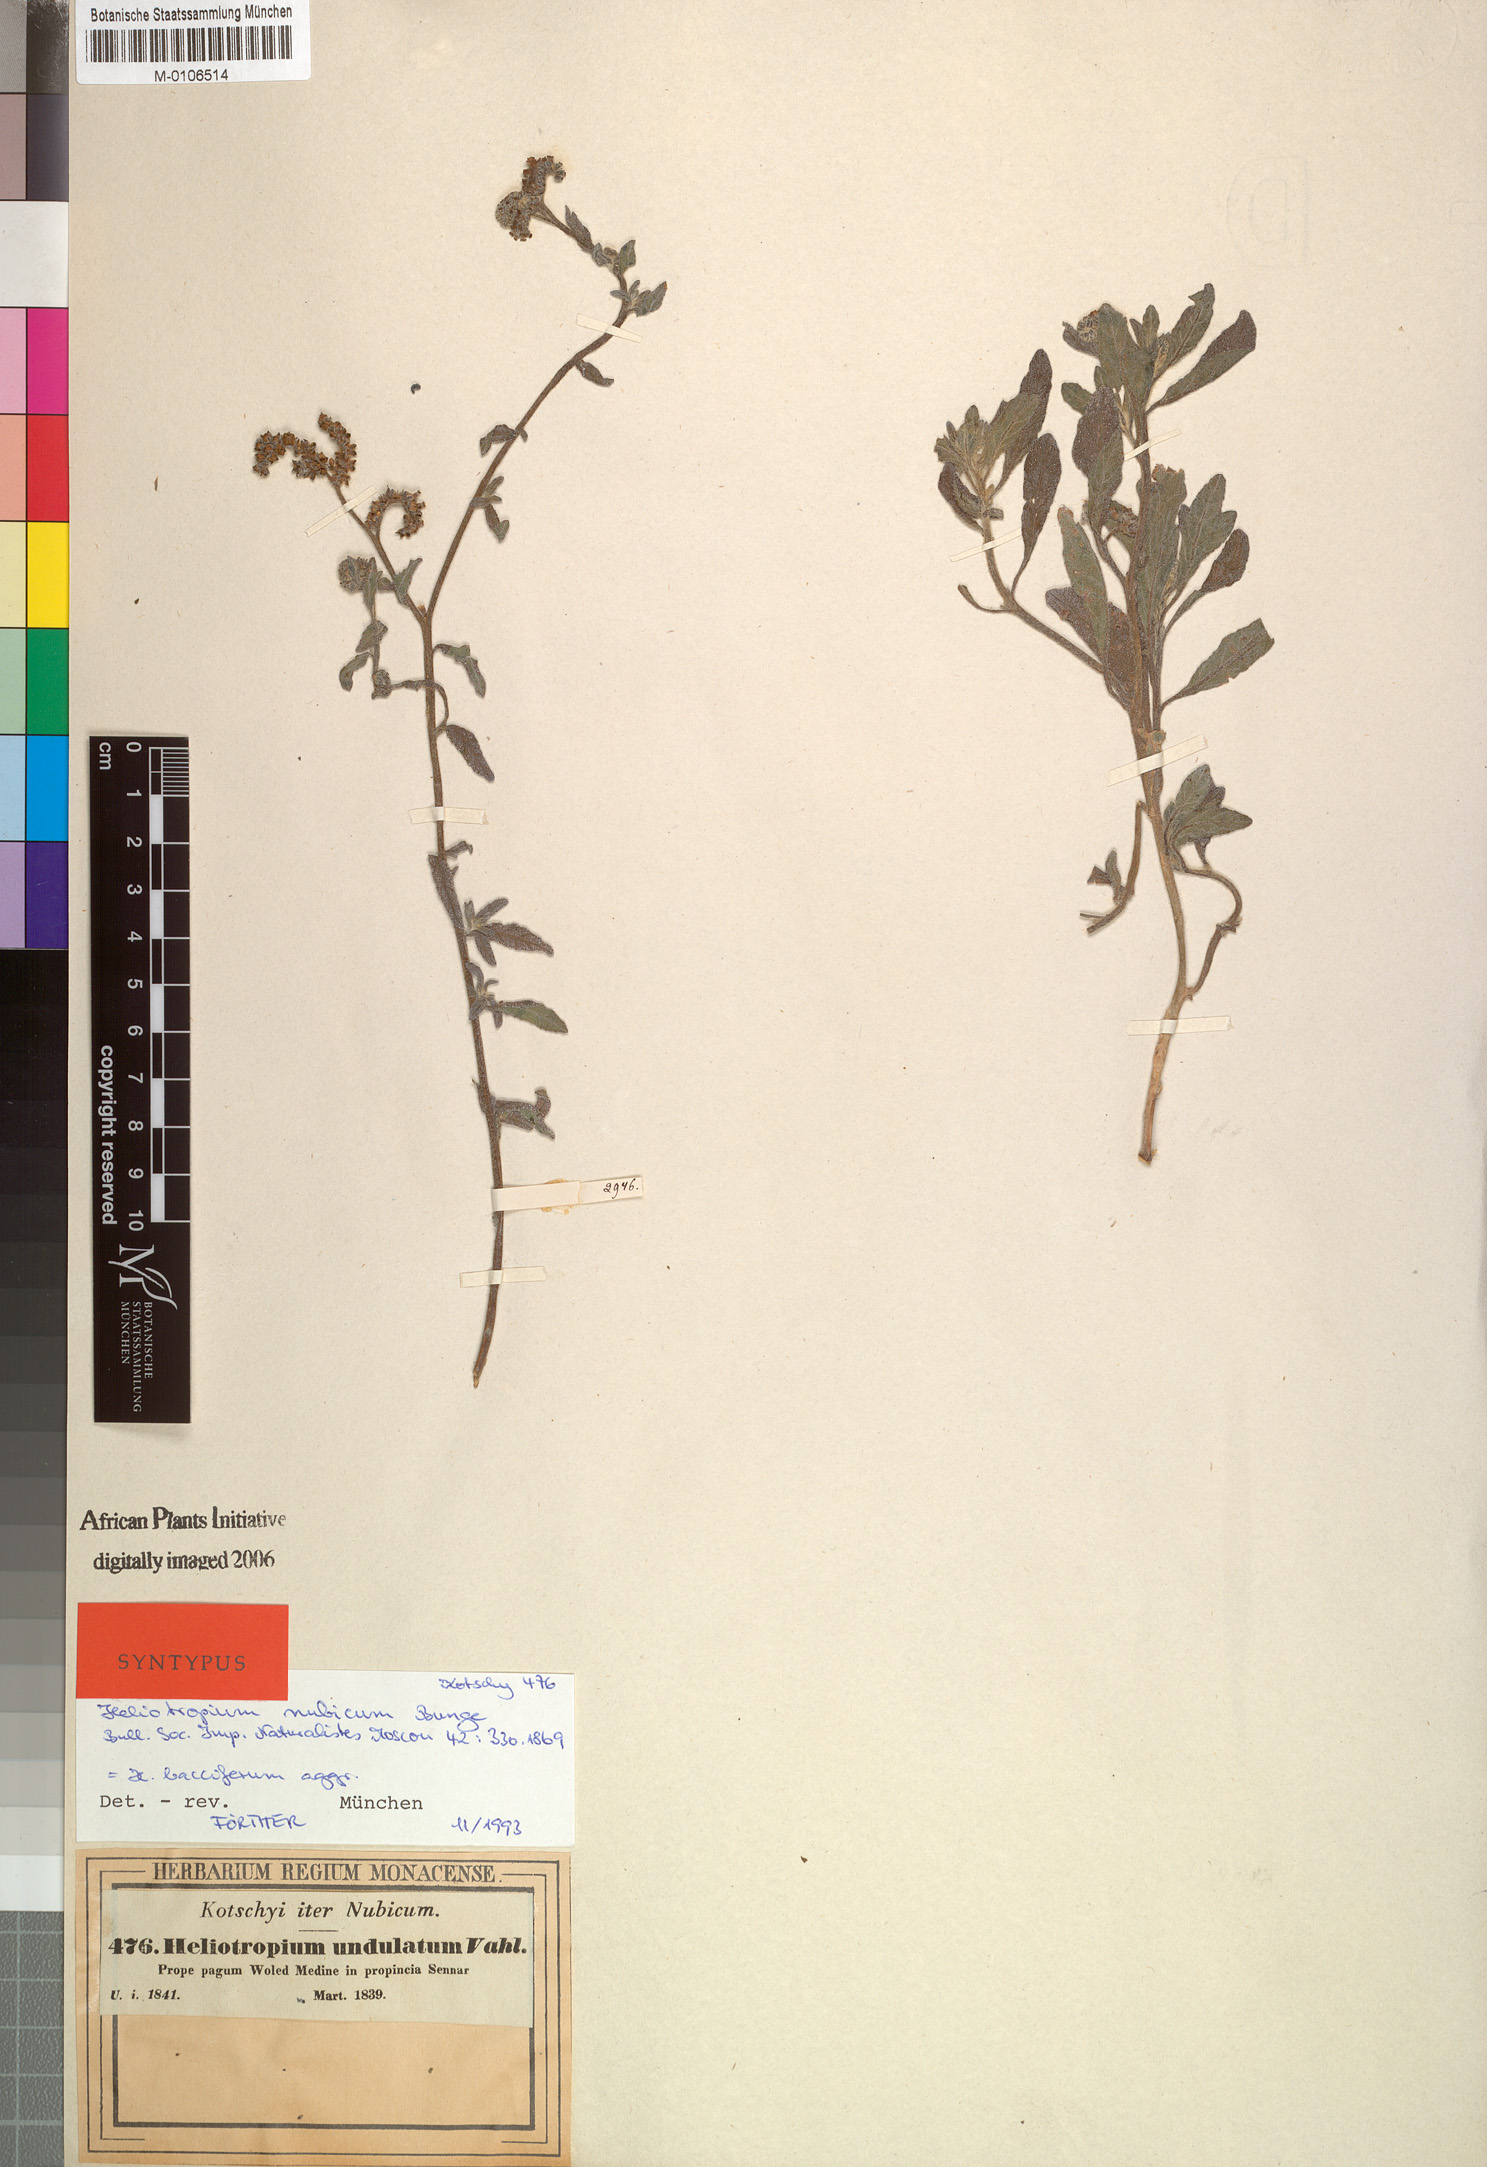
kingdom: Plantae
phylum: Tracheophyta
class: Magnoliopsida
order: Boraginales
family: Heliotropiaceae
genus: Heliotropium
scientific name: Heliotropium bacciferum
